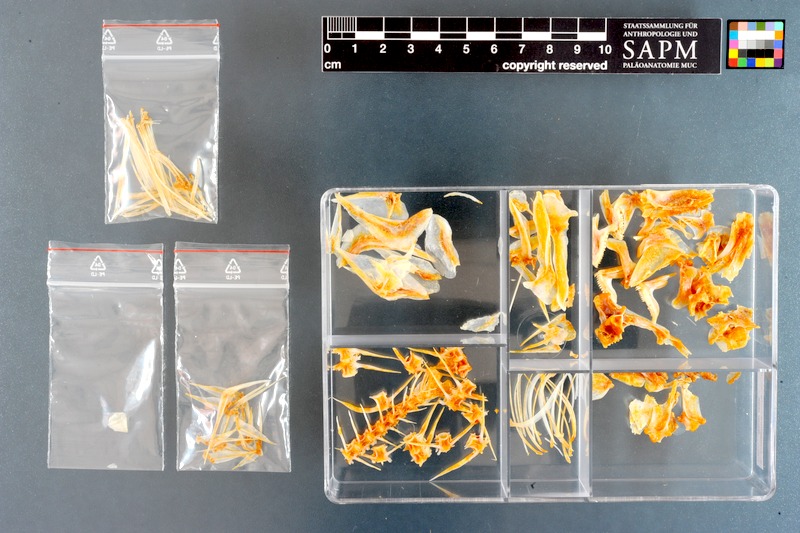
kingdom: Animalia
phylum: Chordata
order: Perciformes
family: Sparidae
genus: Pagellus
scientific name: Pagellus natalensis
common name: Natal pandora
